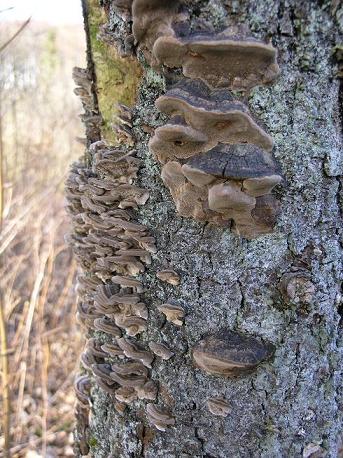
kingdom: Fungi
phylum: Basidiomycota
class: Agaricomycetes
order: Polyporales
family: Polyporaceae
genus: Trametes
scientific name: Trametes versicolor
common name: broget læderporesvamp
